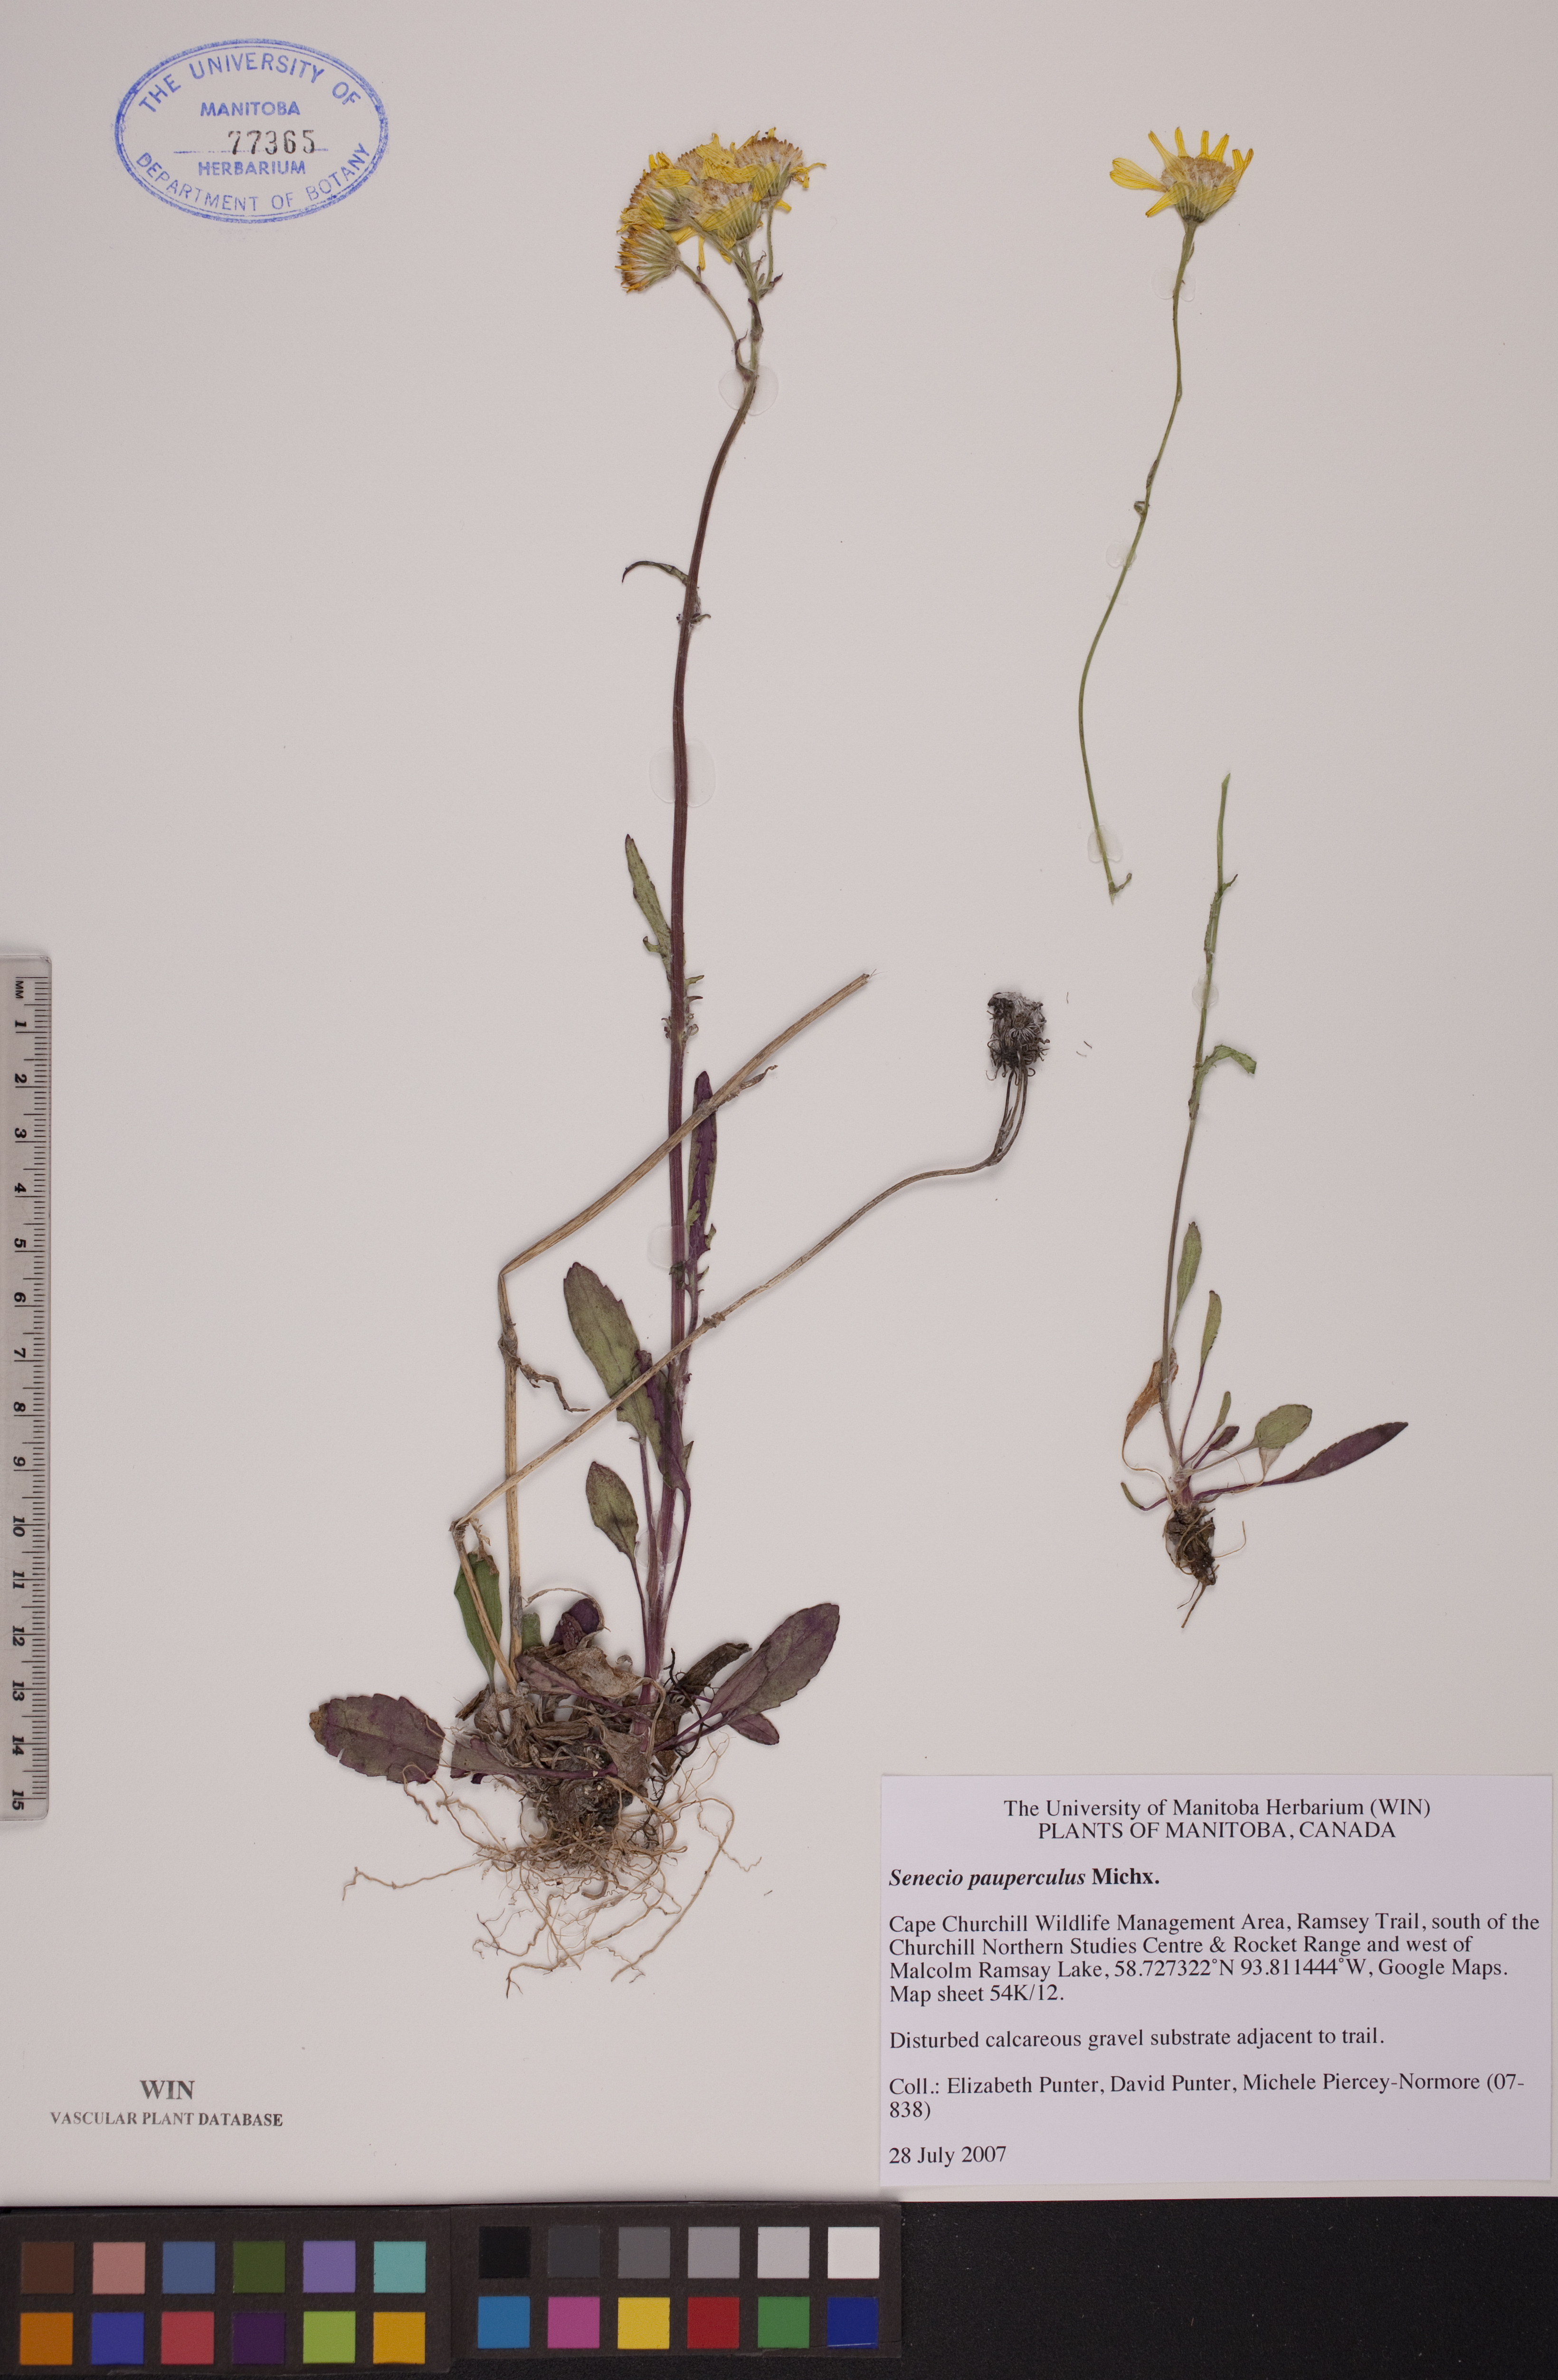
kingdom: Plantae
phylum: Tracheophyta
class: Magnoliopsida
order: Asterales
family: Asteraceae
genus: Packera
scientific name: Packera paupercula
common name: Balsam groundsel
